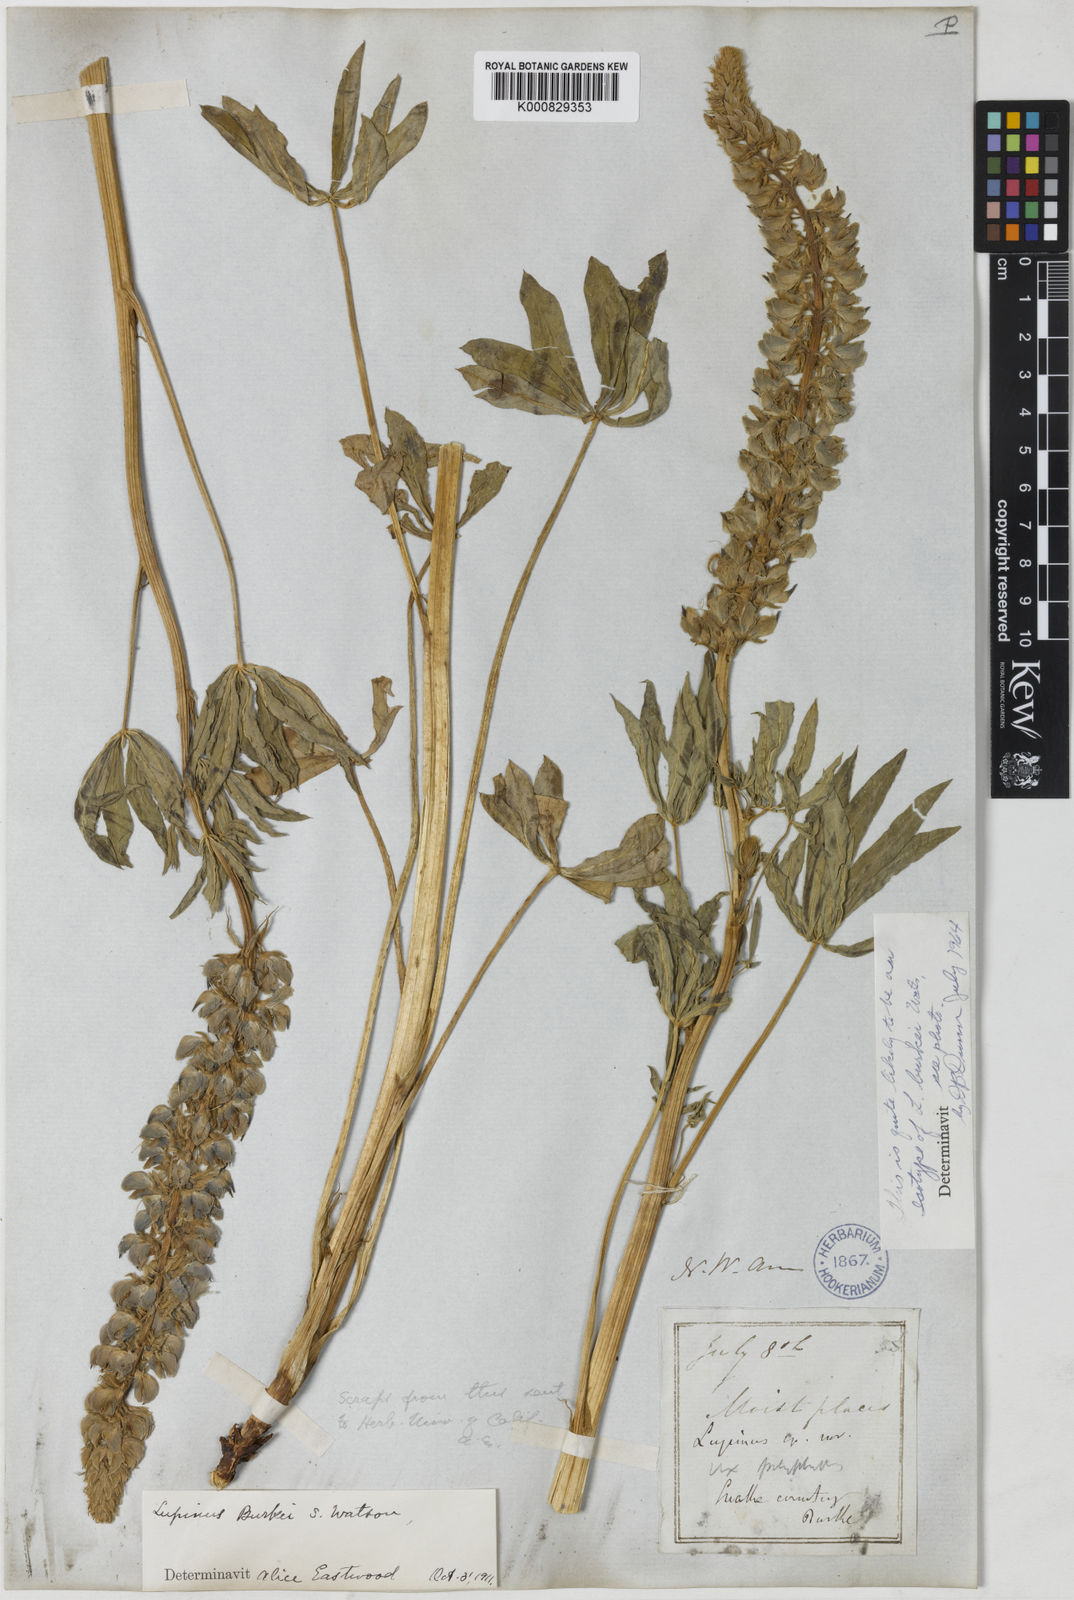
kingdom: Plantae
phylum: Tracheophyta
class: Magnoliopsida
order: Fabales
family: Fabaceae
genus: Lupinus
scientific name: Lupinus burkei
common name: Largeleaf lupine
